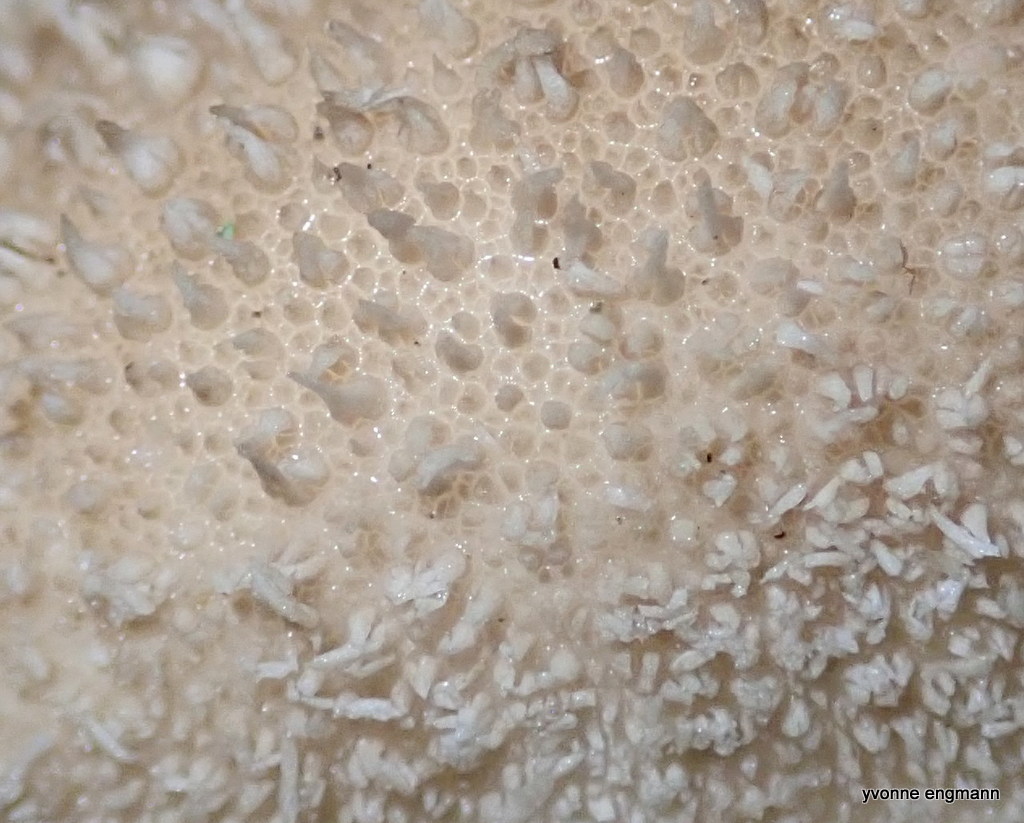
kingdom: Fungi
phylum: Basidiomycota
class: Agaricomycetes
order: Agaricales
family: Lycoperdaceae
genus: Lycoperdon
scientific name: Lycoperdon perlatum
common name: krystal-støvbold
